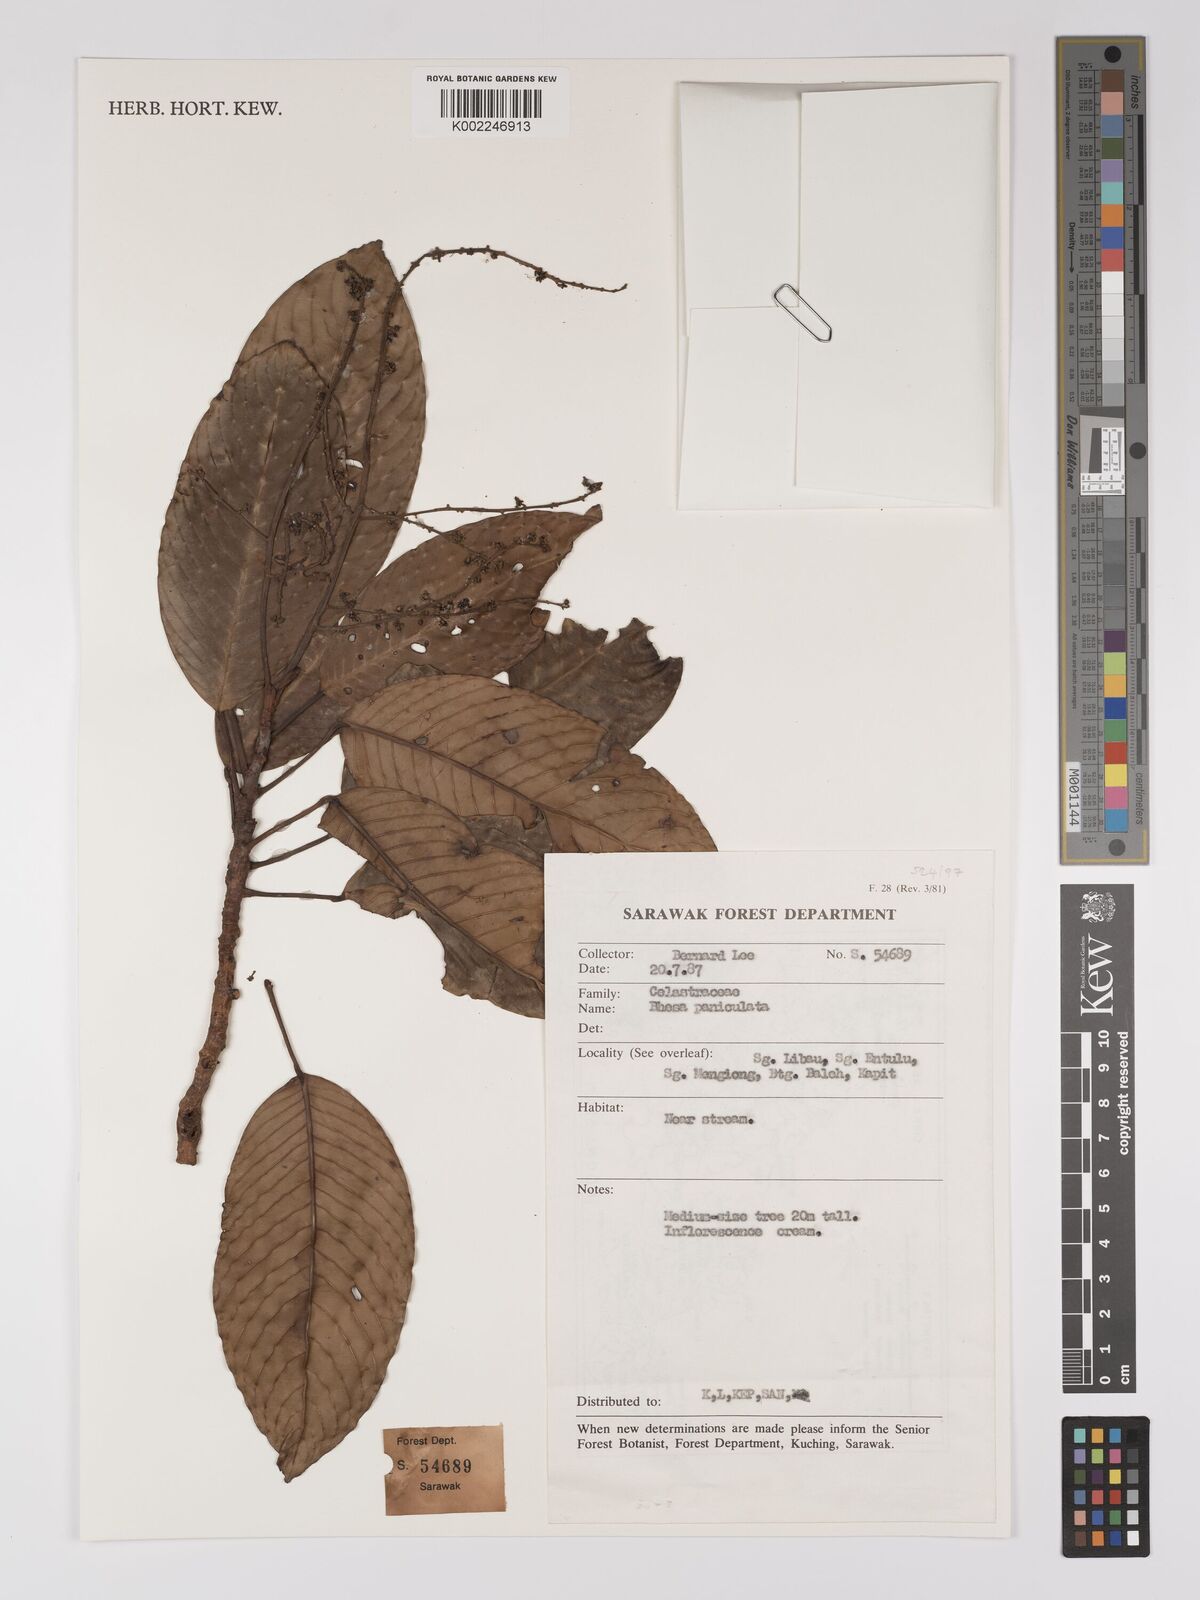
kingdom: Plantae
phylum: Tracheophyta
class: Magnoliopsida
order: Malpighiales
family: Centroplacaceae
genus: Bhesa
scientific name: Bhesa paniculata
